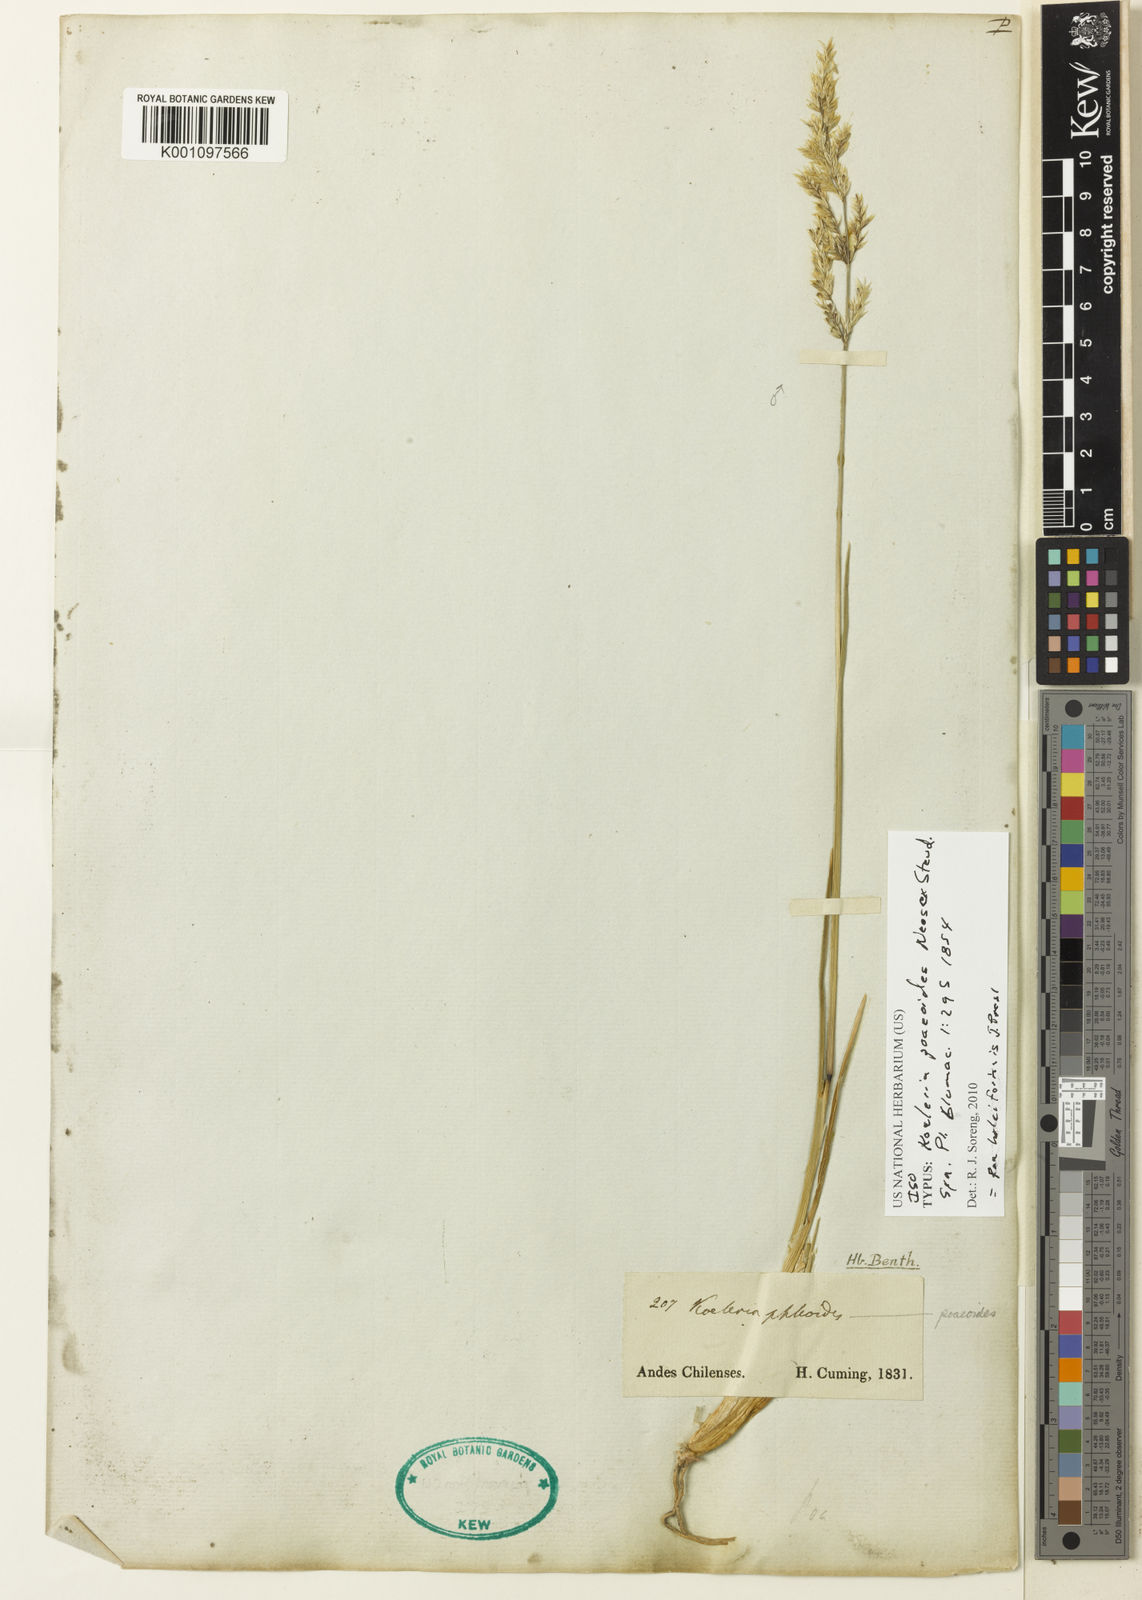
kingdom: Plantae
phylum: Tracheophyta
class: Liliopsida
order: Poales
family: Poaceae
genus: Poa
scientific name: Poa holciformis
